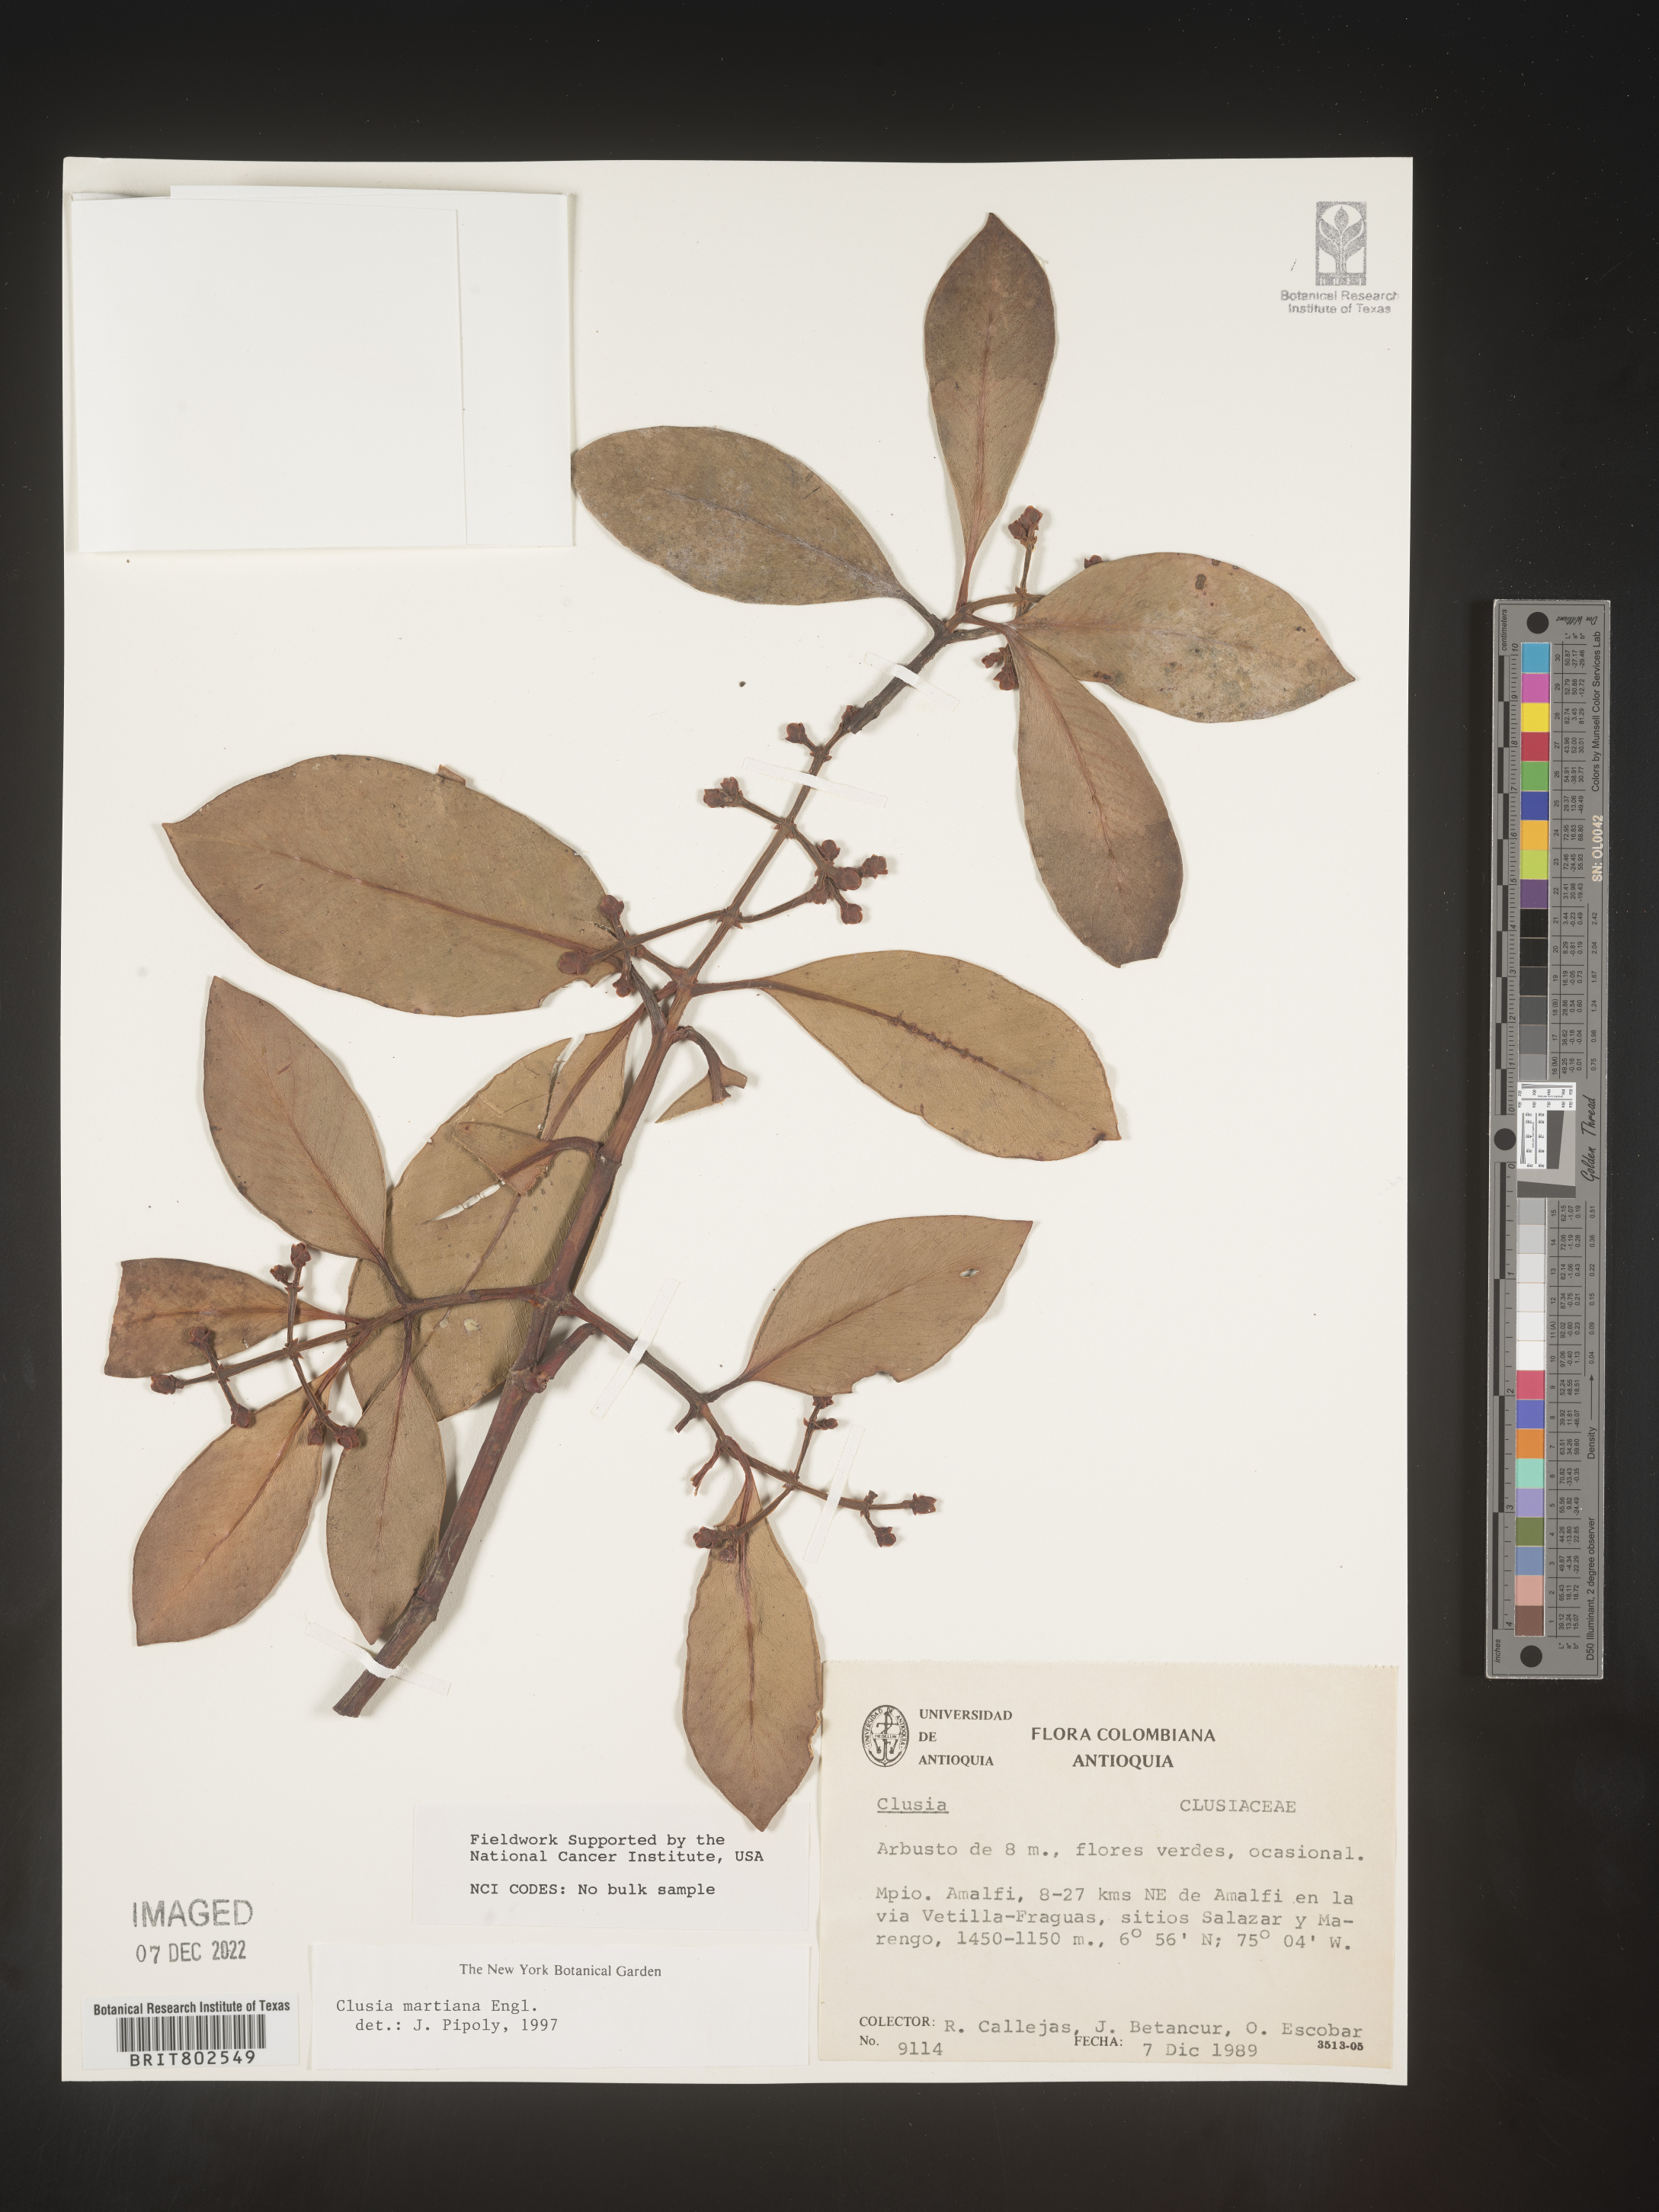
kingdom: Plantae
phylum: Tracheophyta
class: Magnoliopsida
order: Malpighiales
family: Clusiaceae
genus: Clusia
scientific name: Clusia
